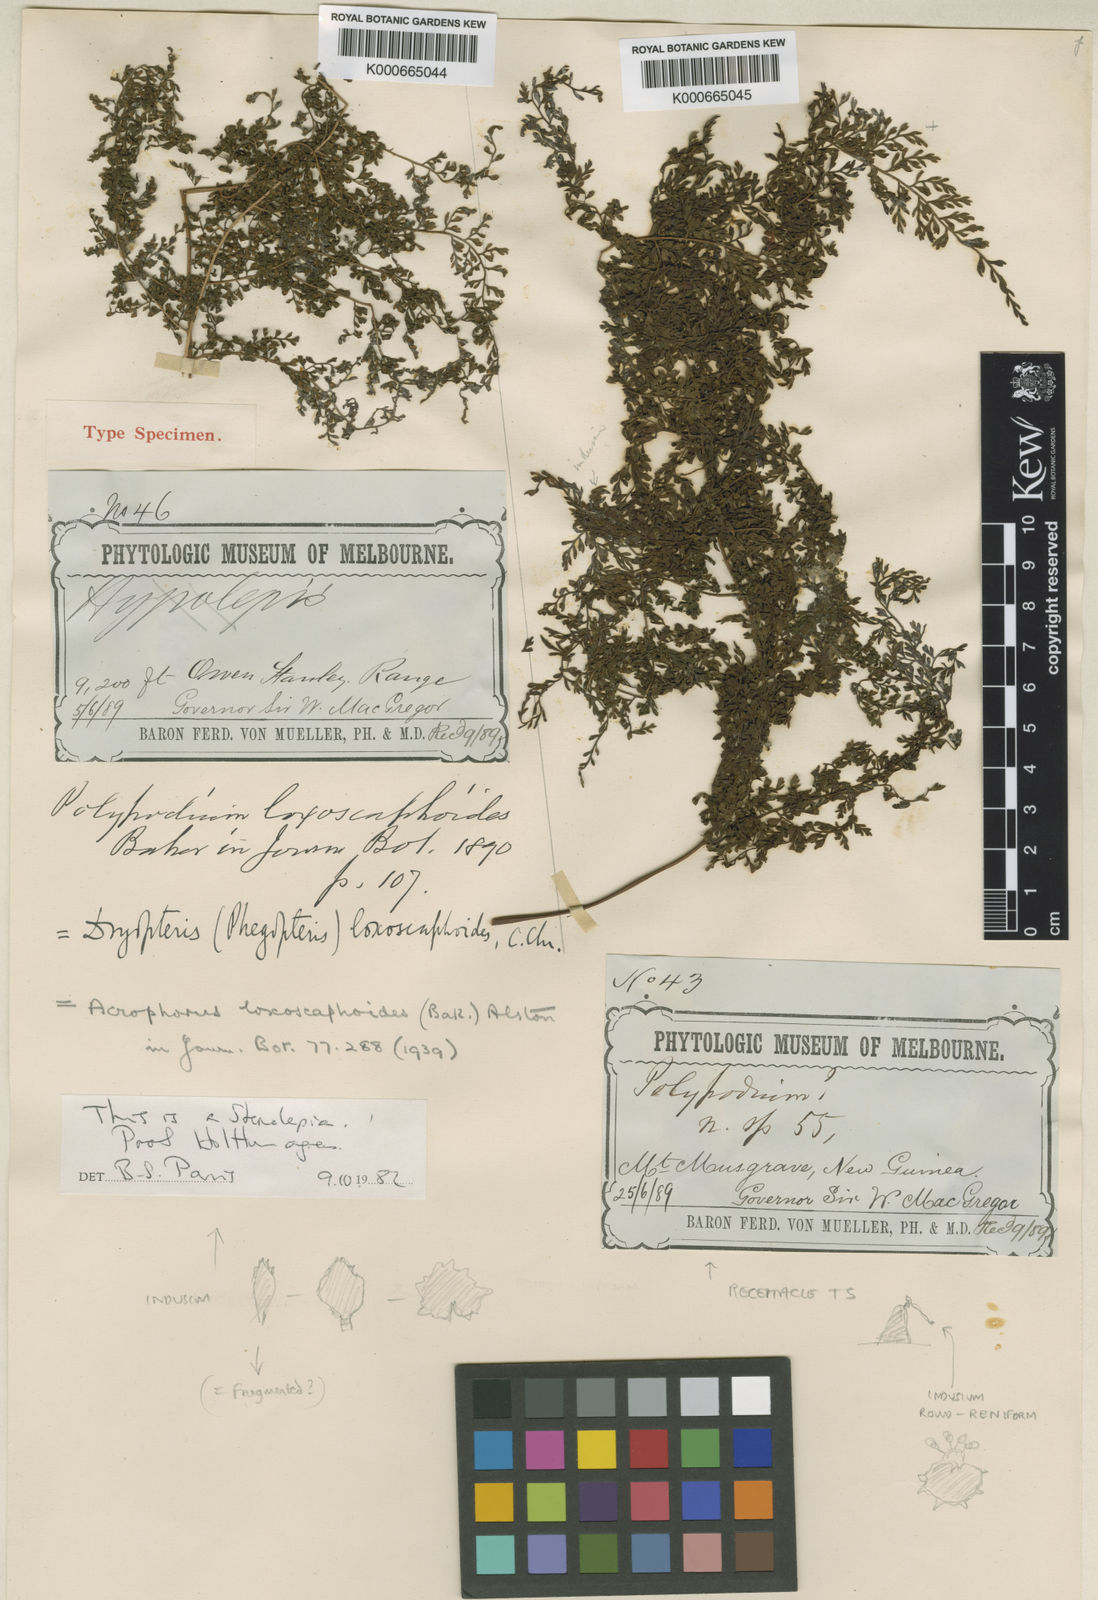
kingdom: Plantae
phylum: Tracheophyta
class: Polypodiopsida
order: Polypodiales
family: Dryopteridaceae
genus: Dryopteris
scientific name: Dryopteris loxoscaphoides
